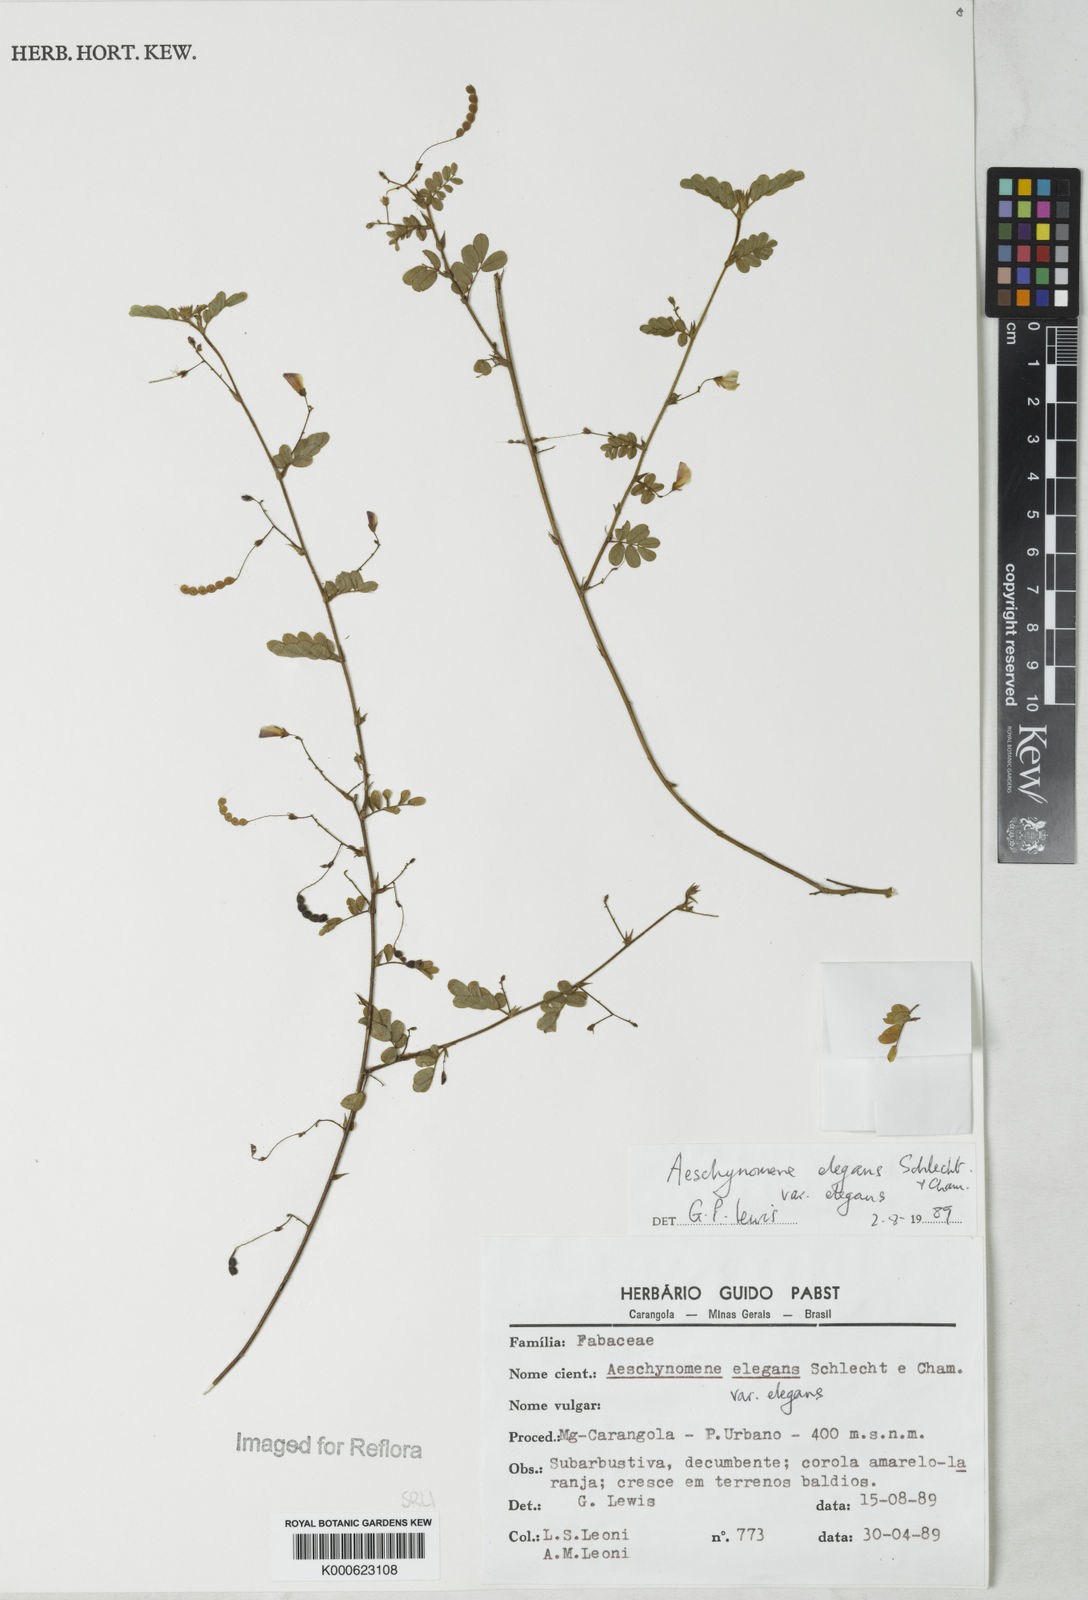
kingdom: Plantae
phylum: Tracheophyta
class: Magnoliopsida
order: Fabales
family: Fabaceae
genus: Aeschynomene
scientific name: Aeschynomene
